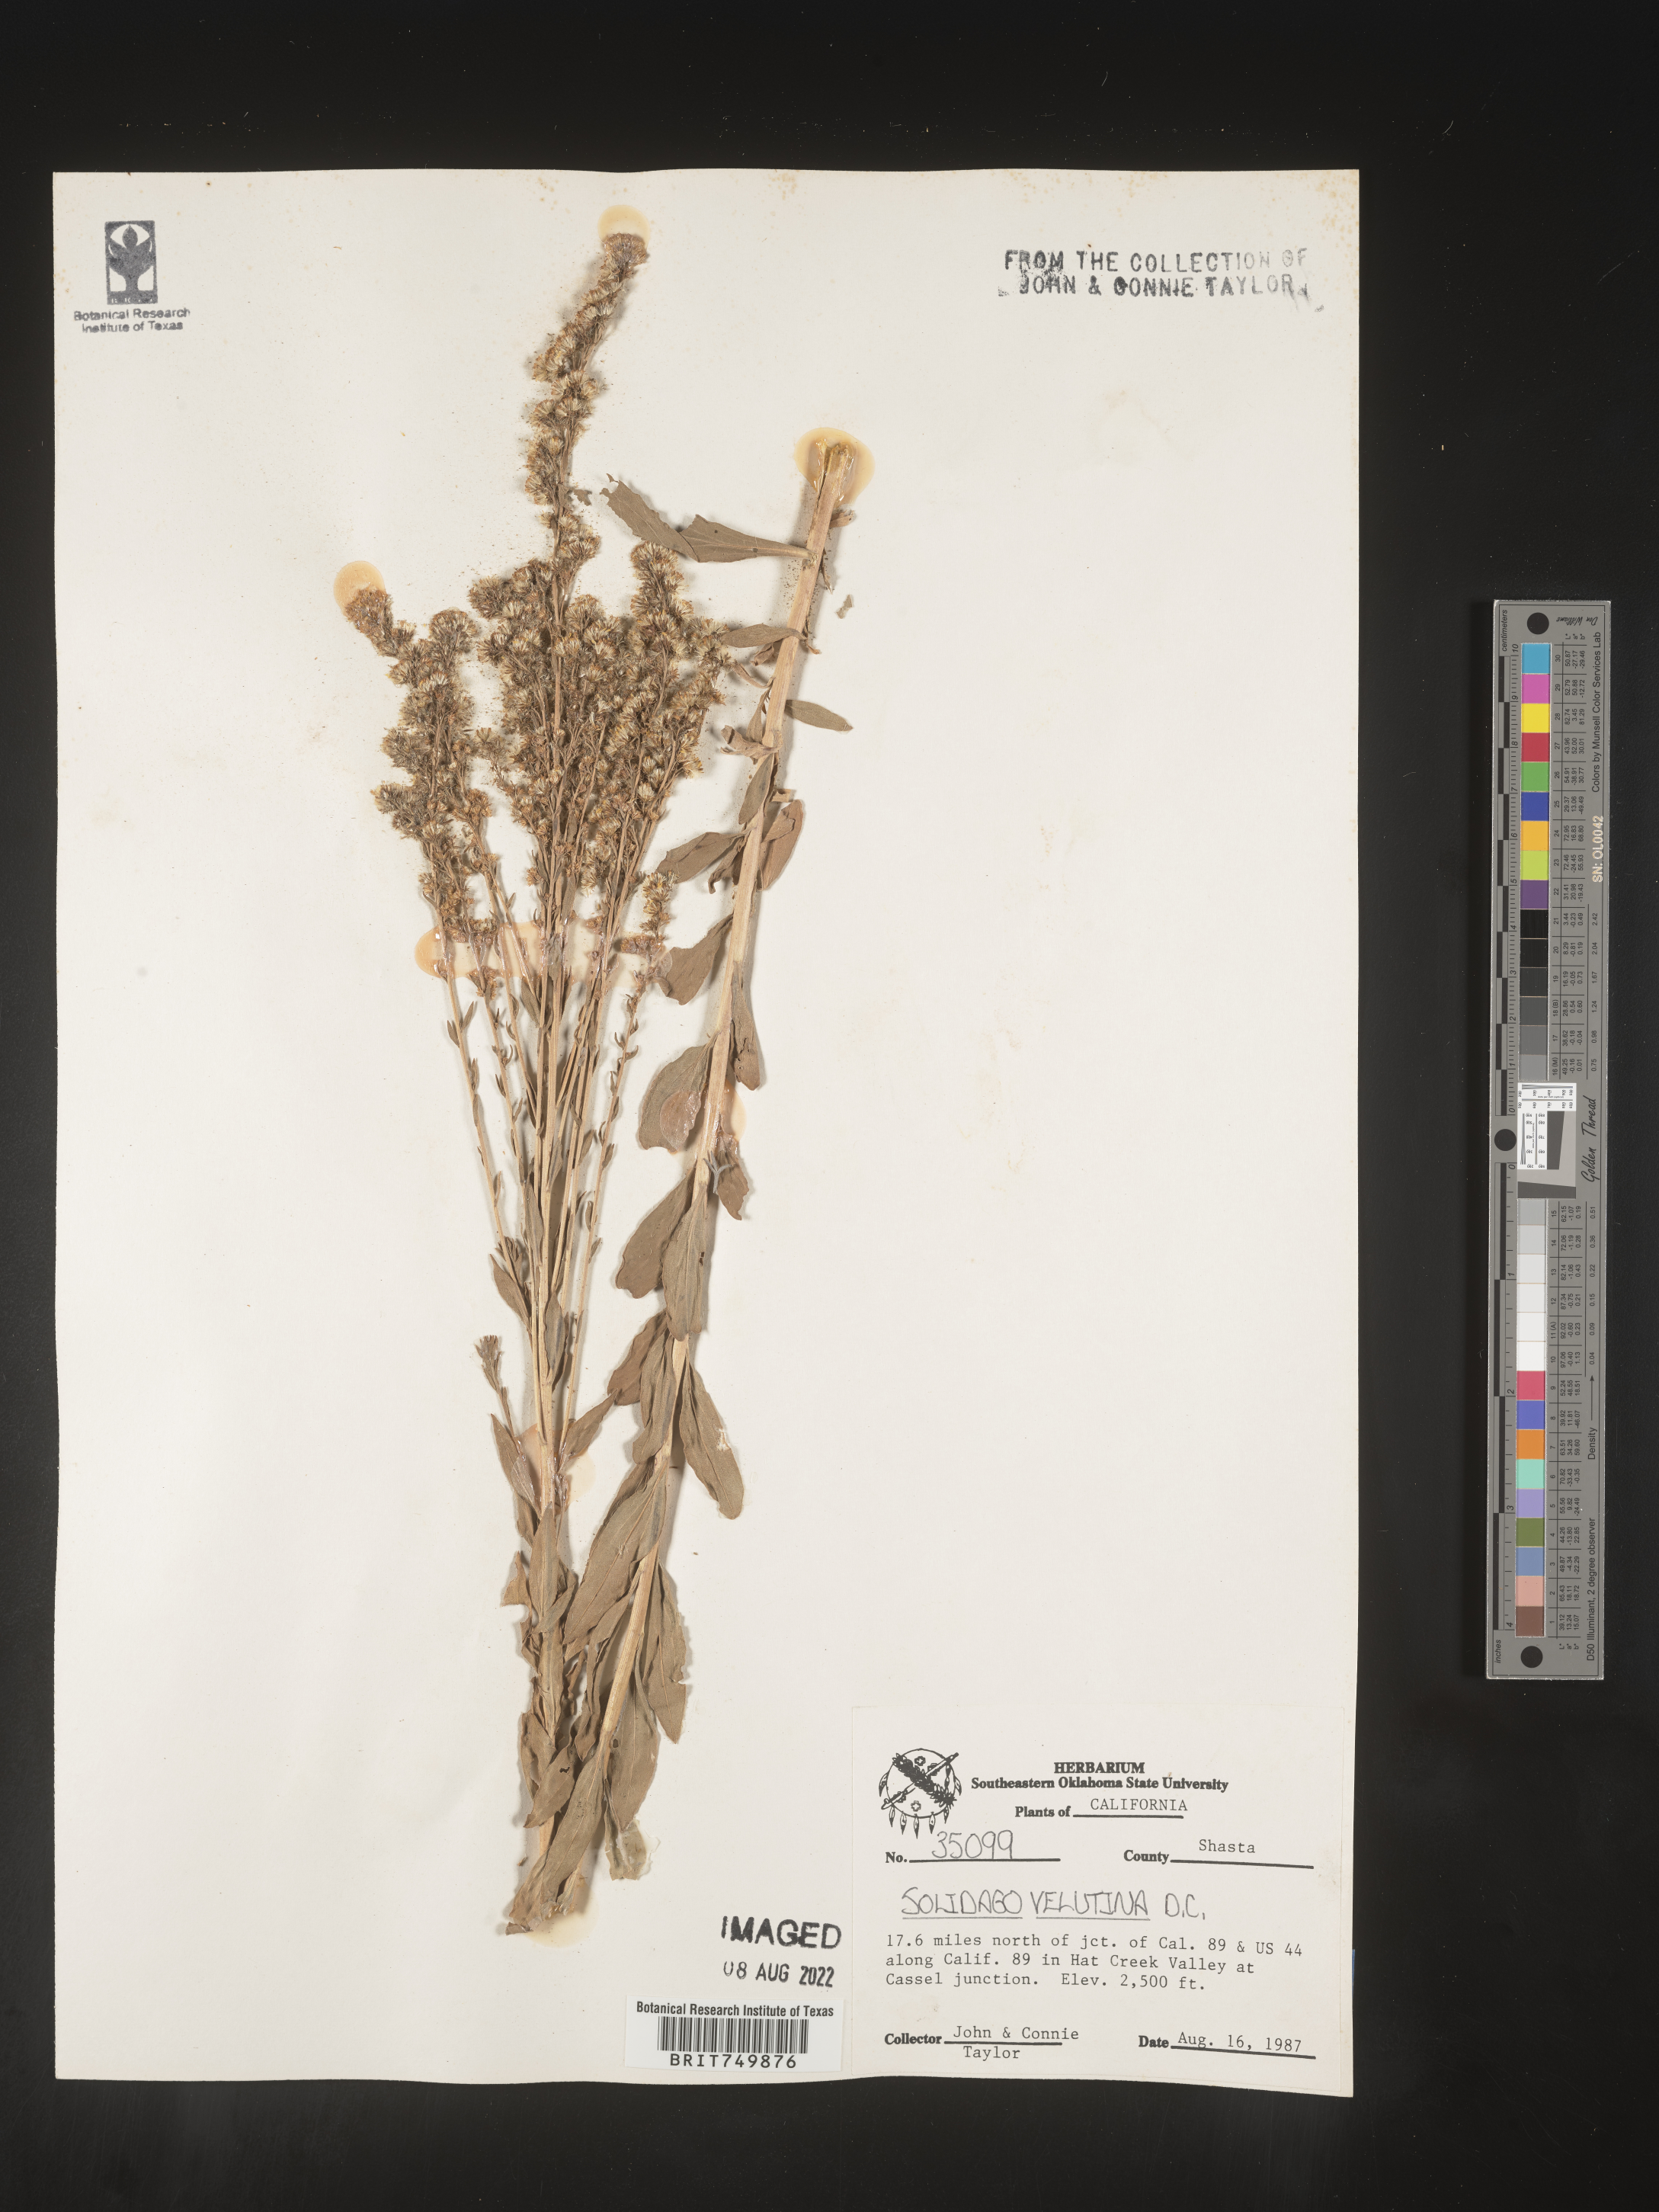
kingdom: Plantae
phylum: Tracheophyta
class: Magnoliopsida
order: Asterales
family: Asteraceae
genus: Solidago
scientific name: Solidago velutina
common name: Three-nerve goldenrod
